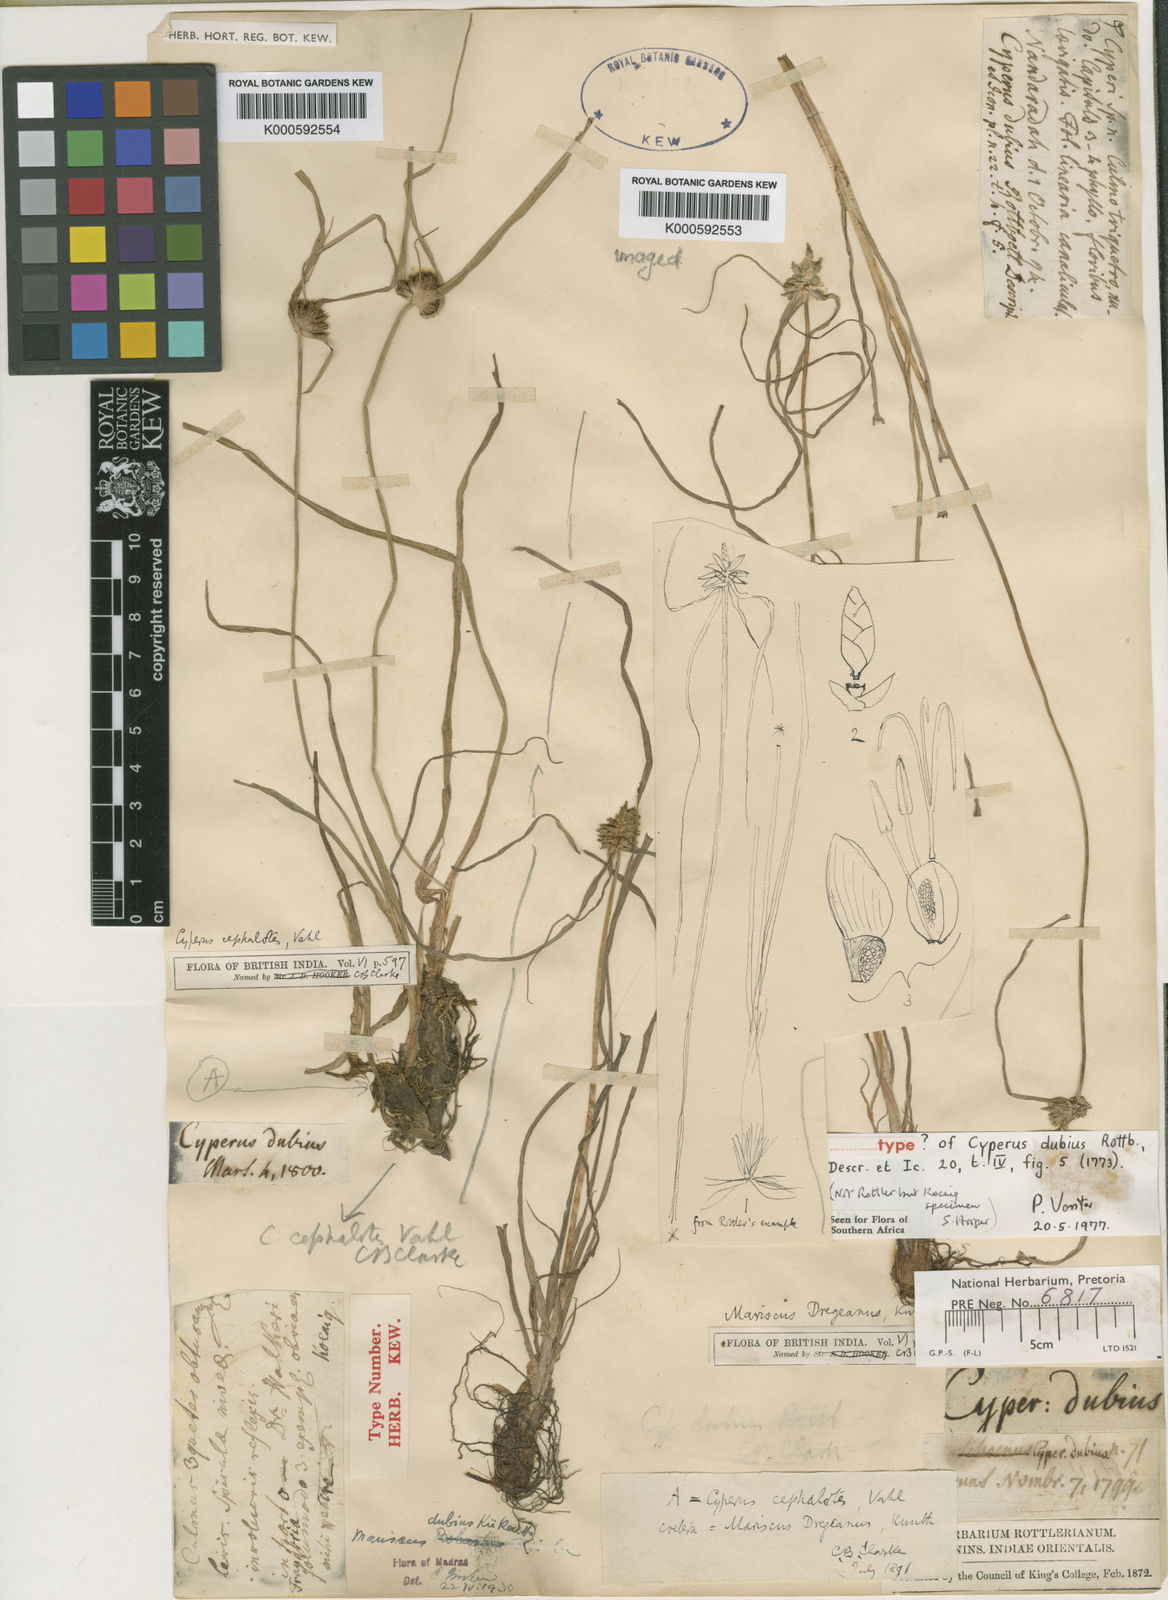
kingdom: Plantae
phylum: Tracheophyta
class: Liliopsida
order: Poales
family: Cyperaceae
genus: Cyperus
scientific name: Cyperus dubius
